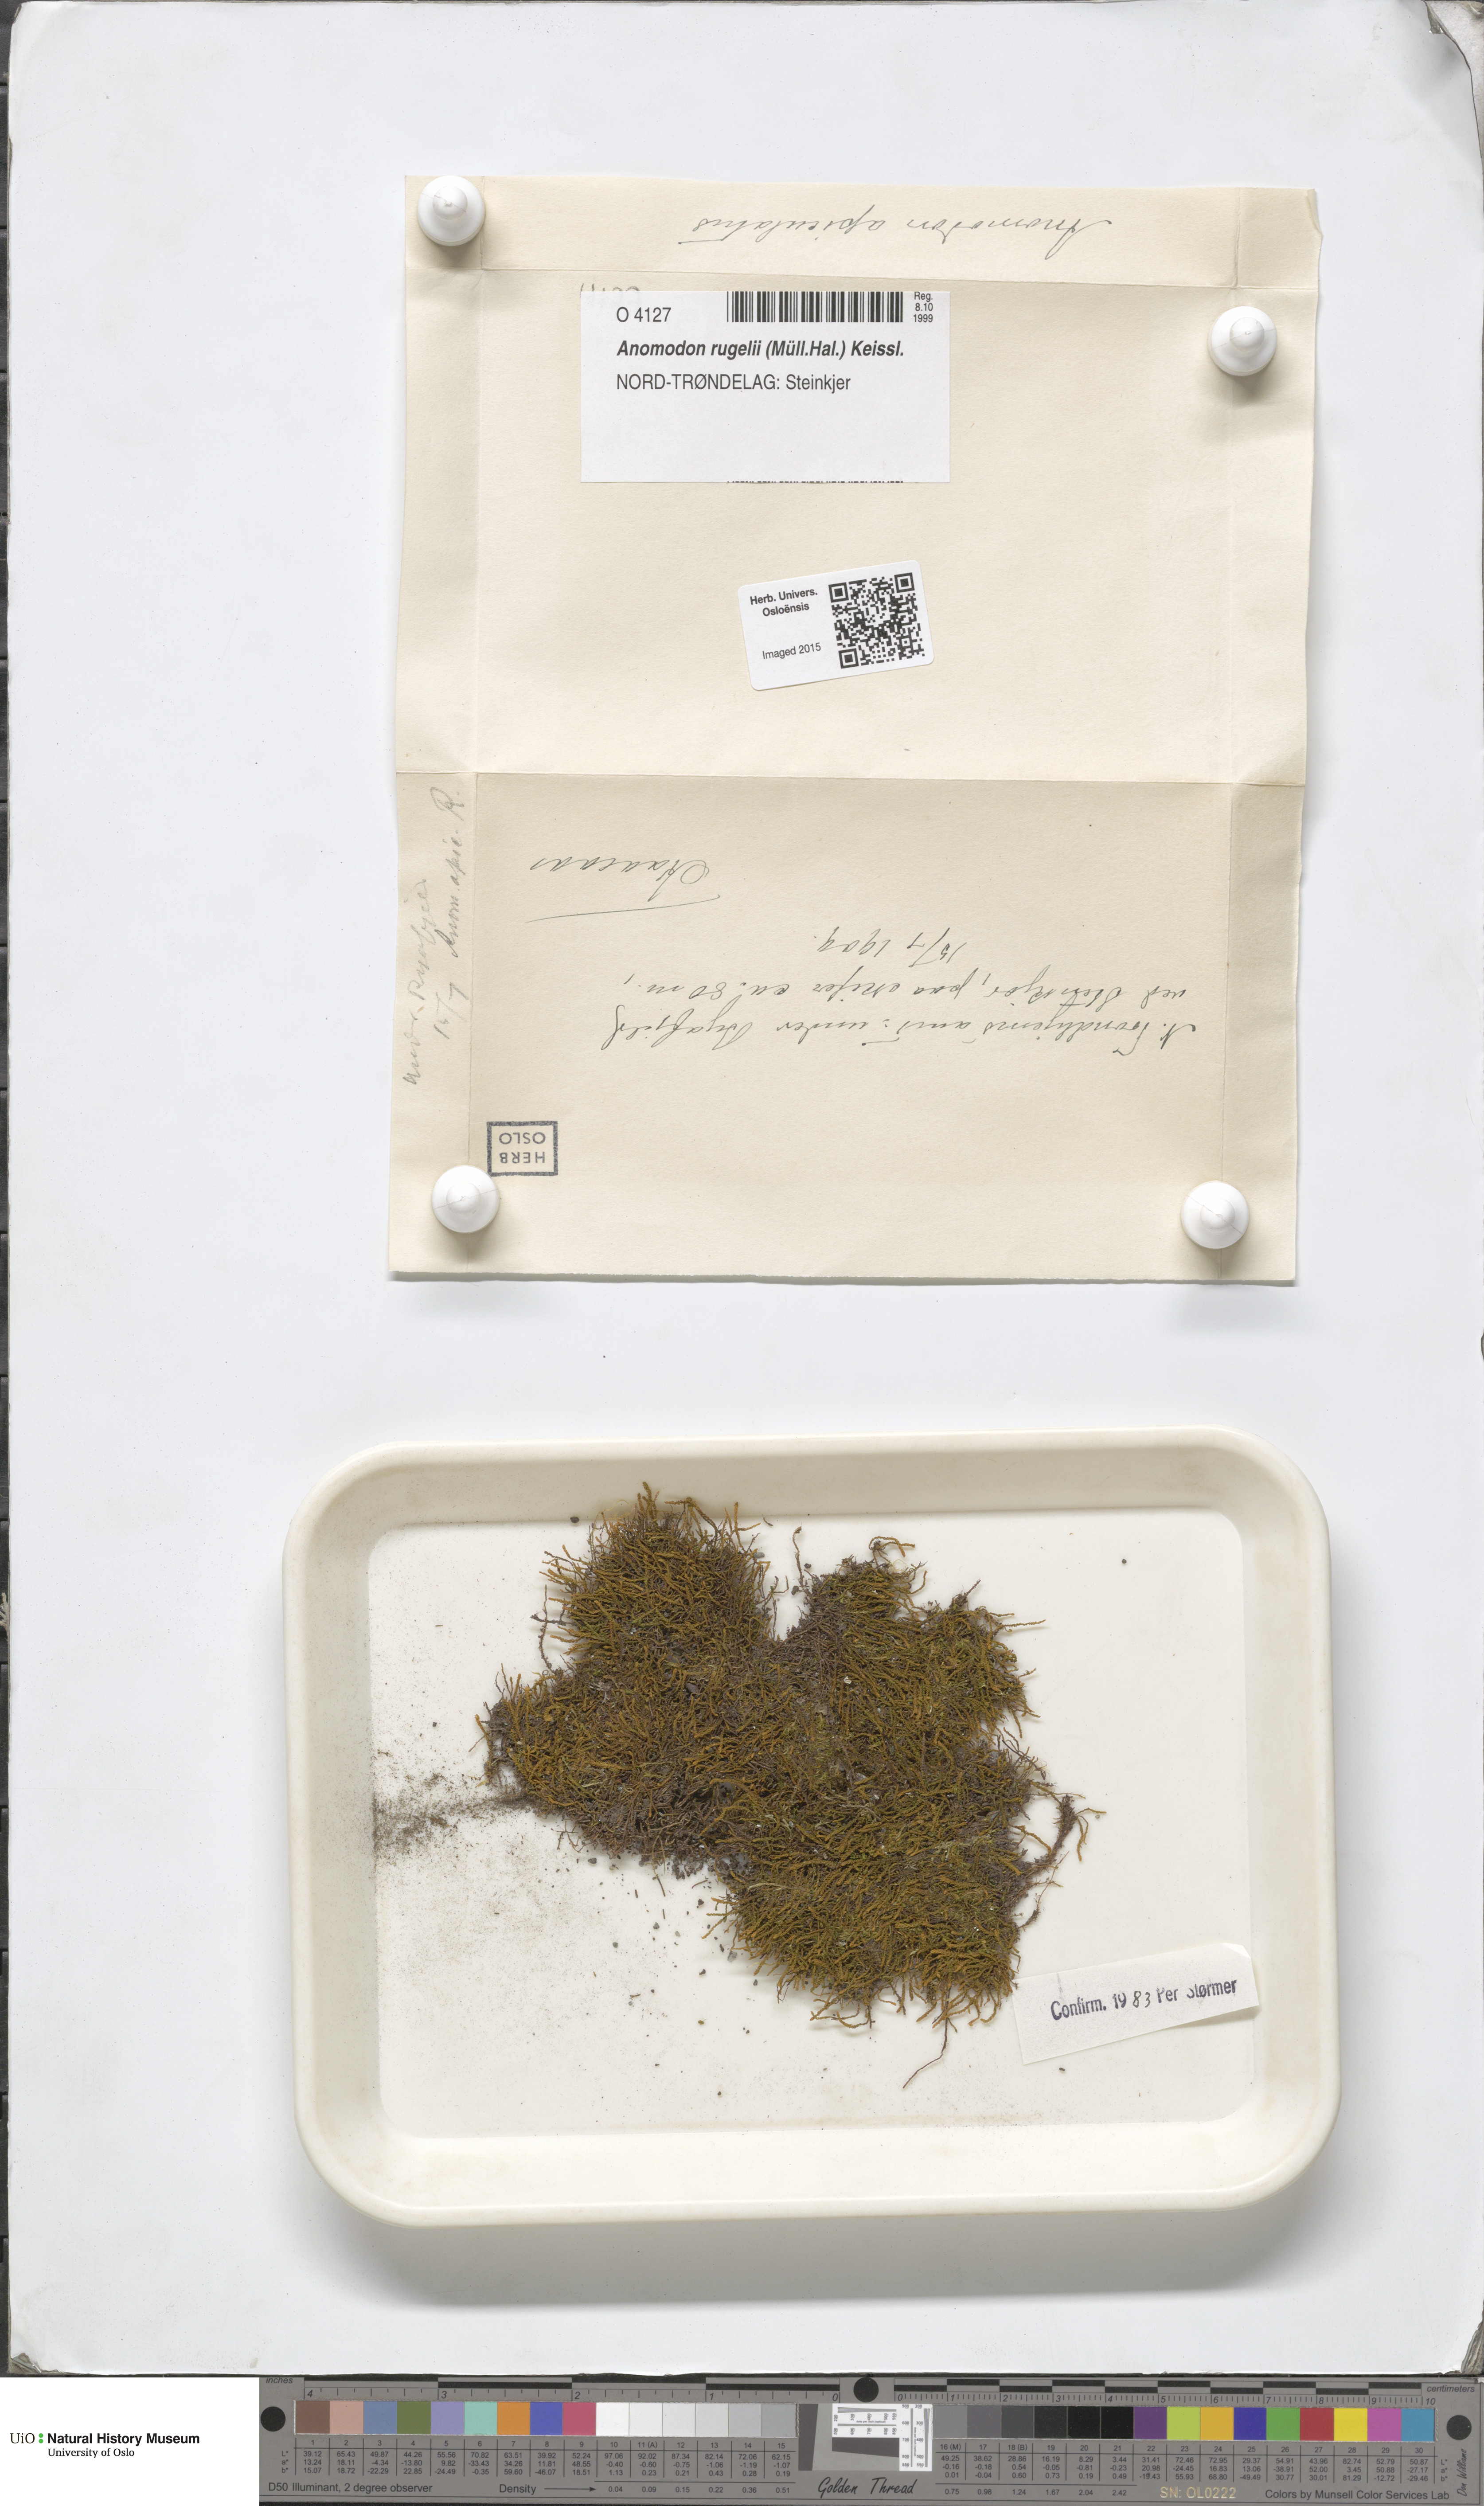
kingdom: Plantae
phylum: Bryophyta
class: Bryopsida
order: Hypnales
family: Anomodontaceae
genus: Anomodontopsis
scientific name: Anomodontopsis rugelii
